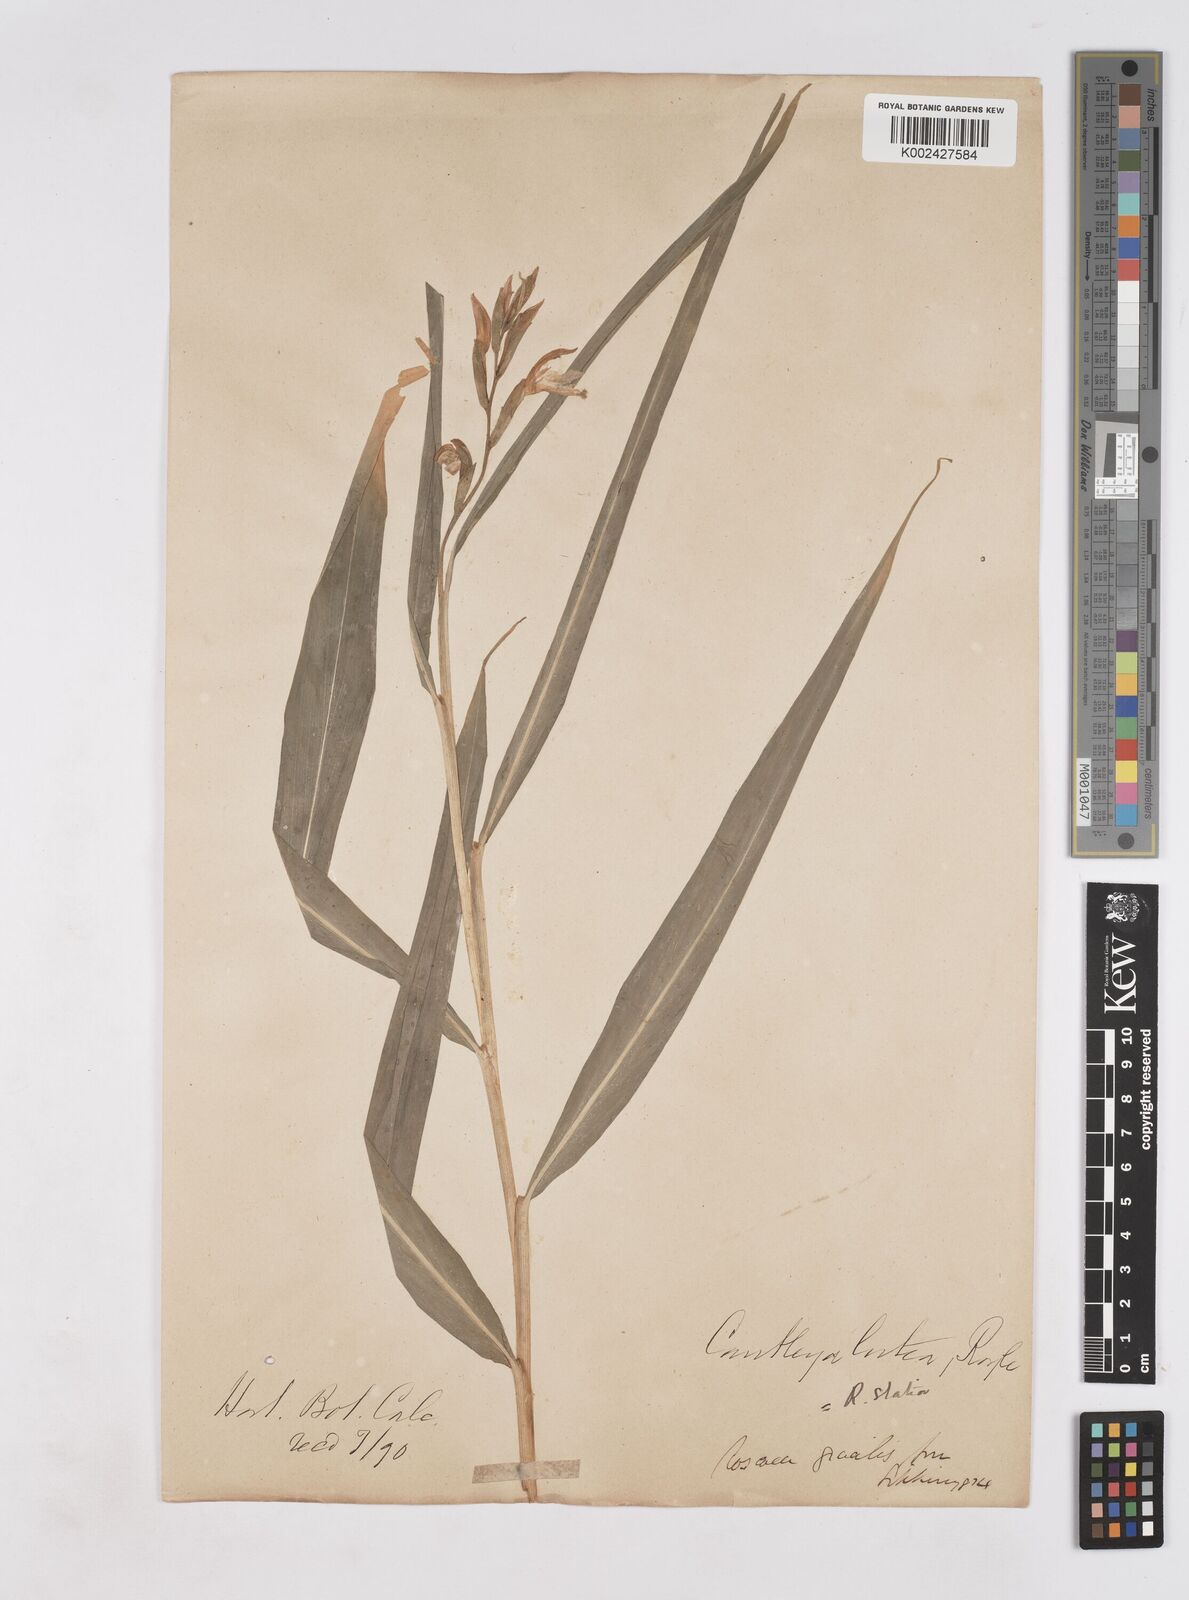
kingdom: Plantae
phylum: Tracheophyta
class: Liliopsida
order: Zingiberales
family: Zingiberaceae
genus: Cautleya
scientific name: Cautleya gracilis
